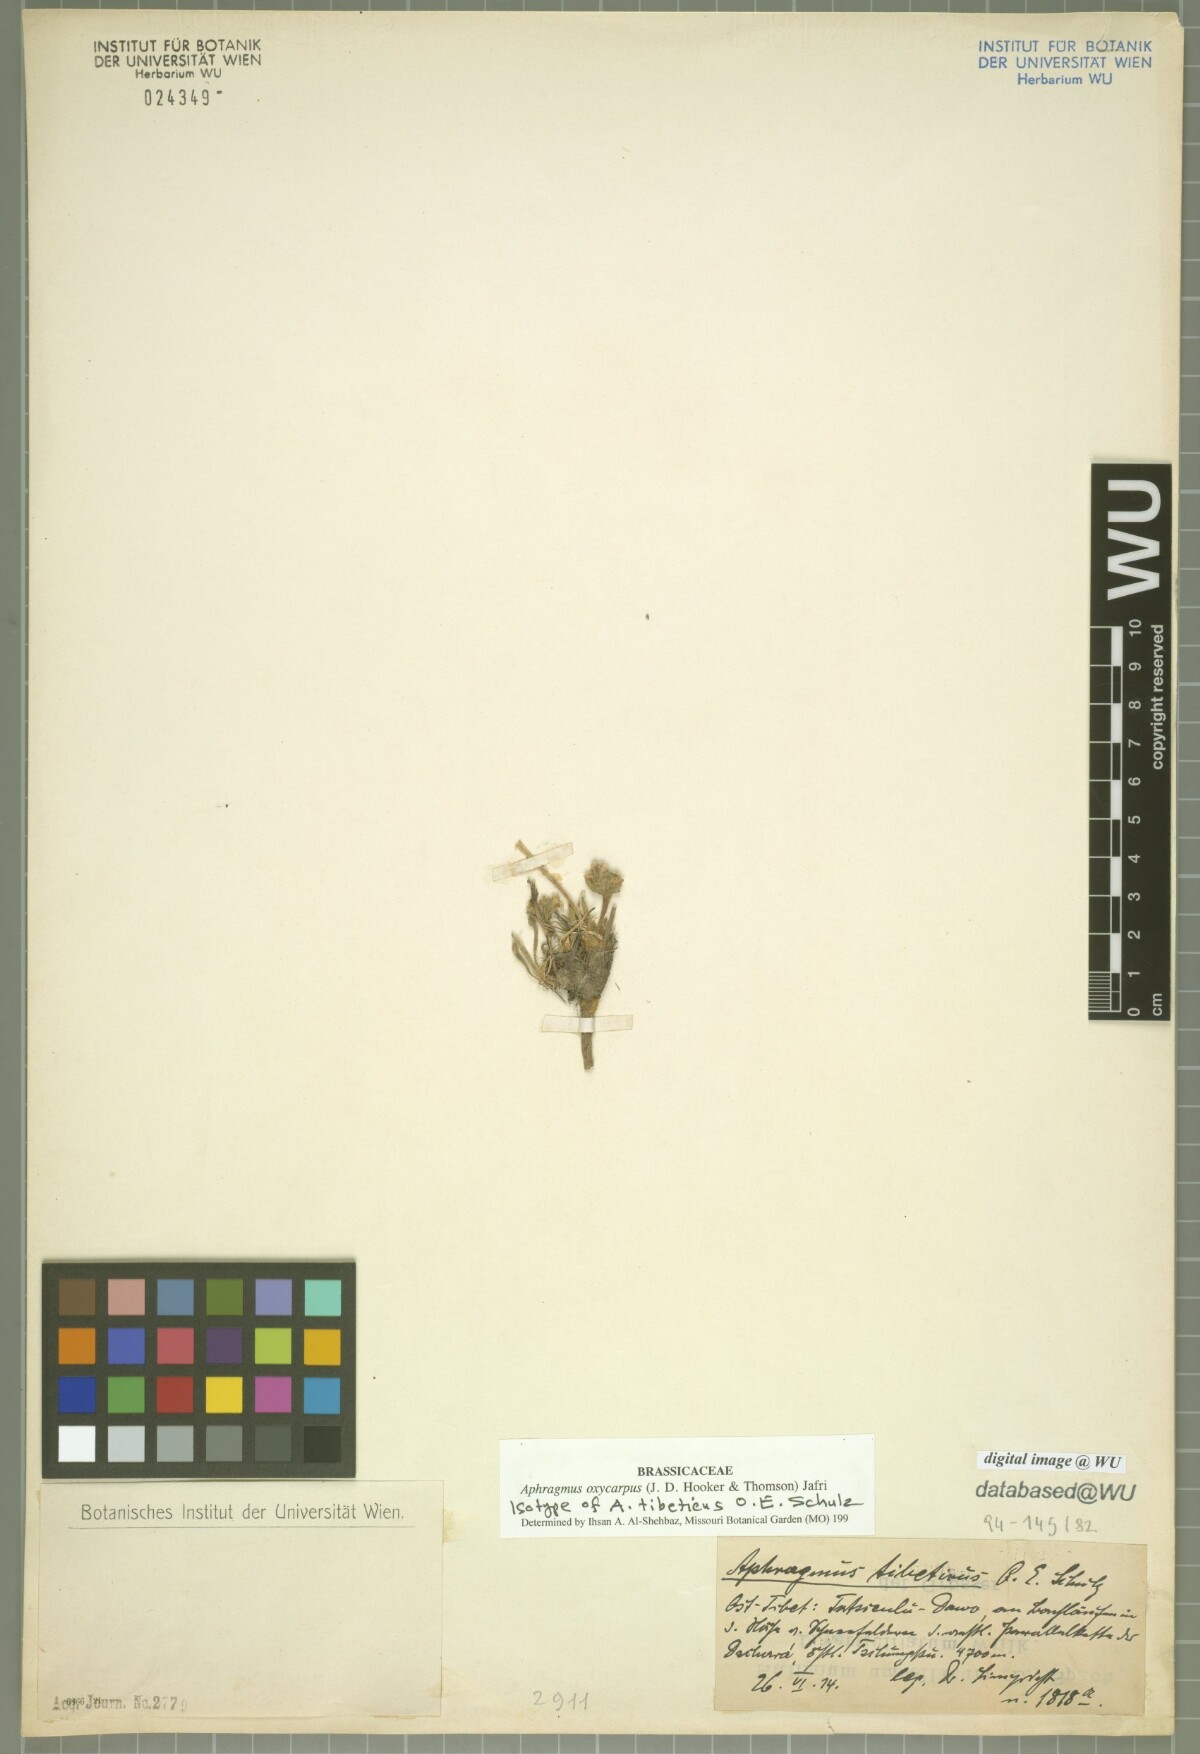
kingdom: Plantae
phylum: Tracheophyta
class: Magnoliopsida
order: Brassicales
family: Brassicaceae
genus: Aphragmus
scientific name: Aphragmus oxycarpus
